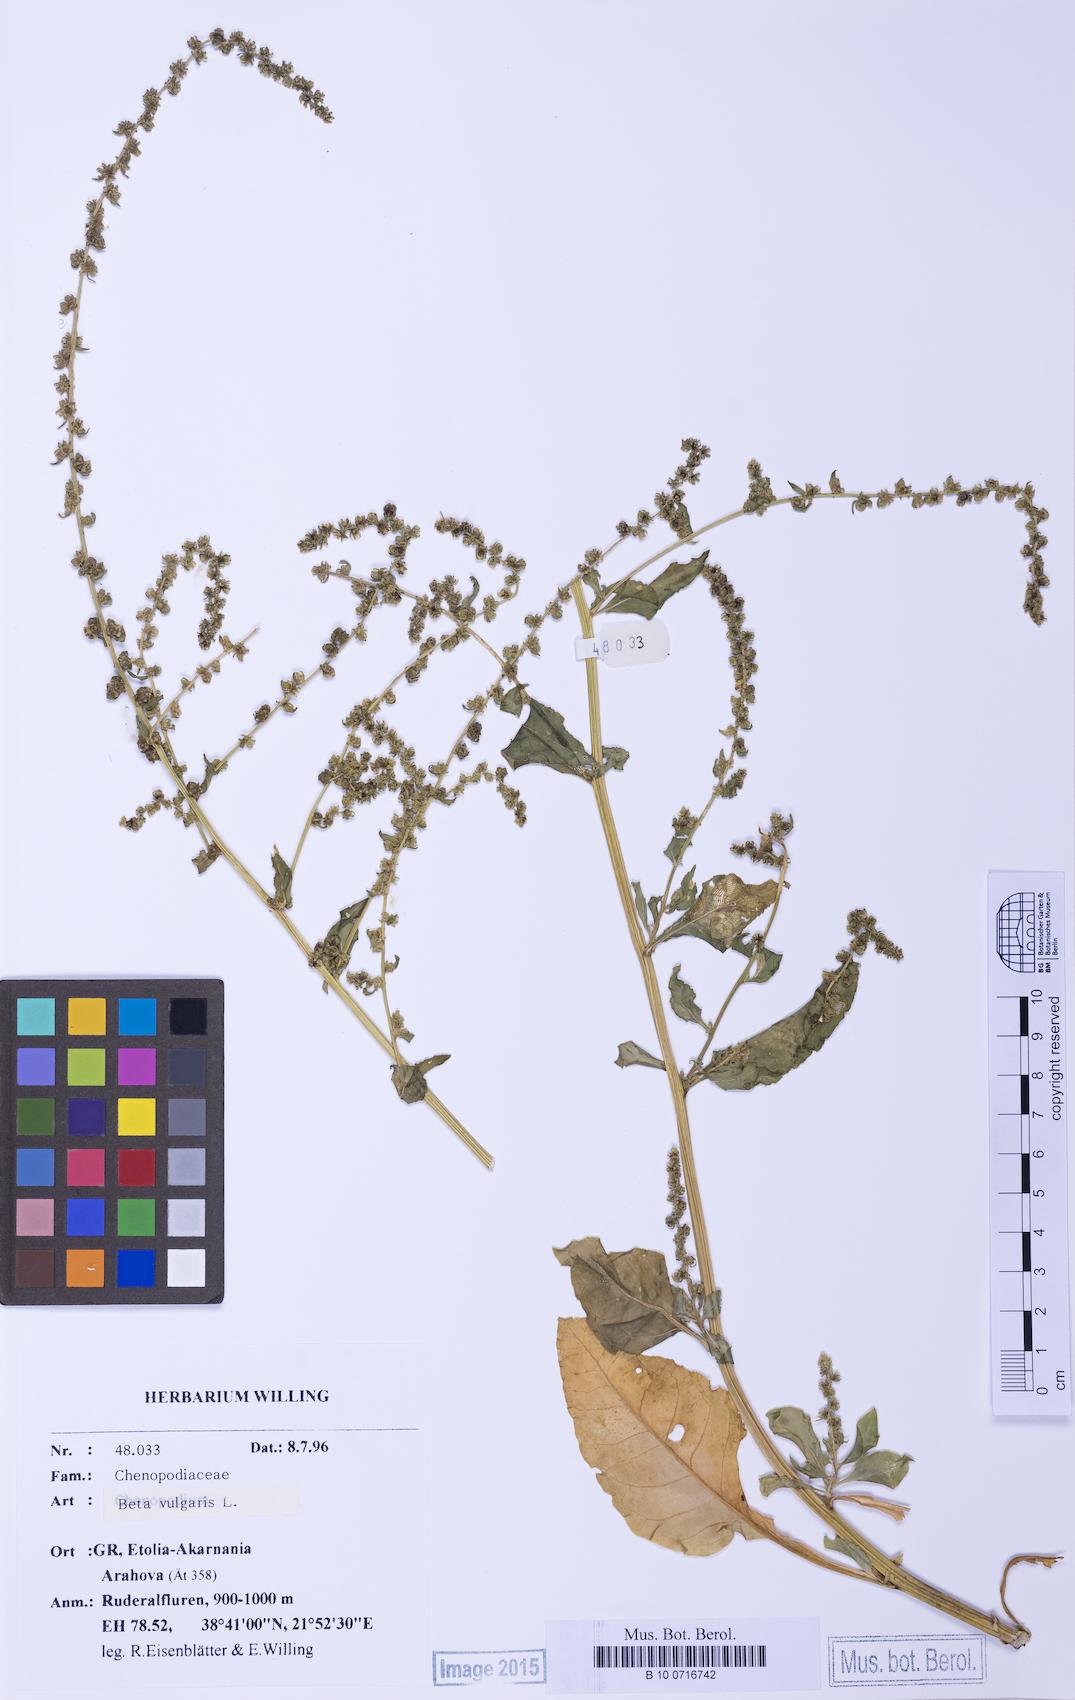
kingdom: Plantae
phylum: Tracheophyta
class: Magnoliopsida
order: Caryophyllales
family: Amaranthaceae
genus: Beta
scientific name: Beta maritima
